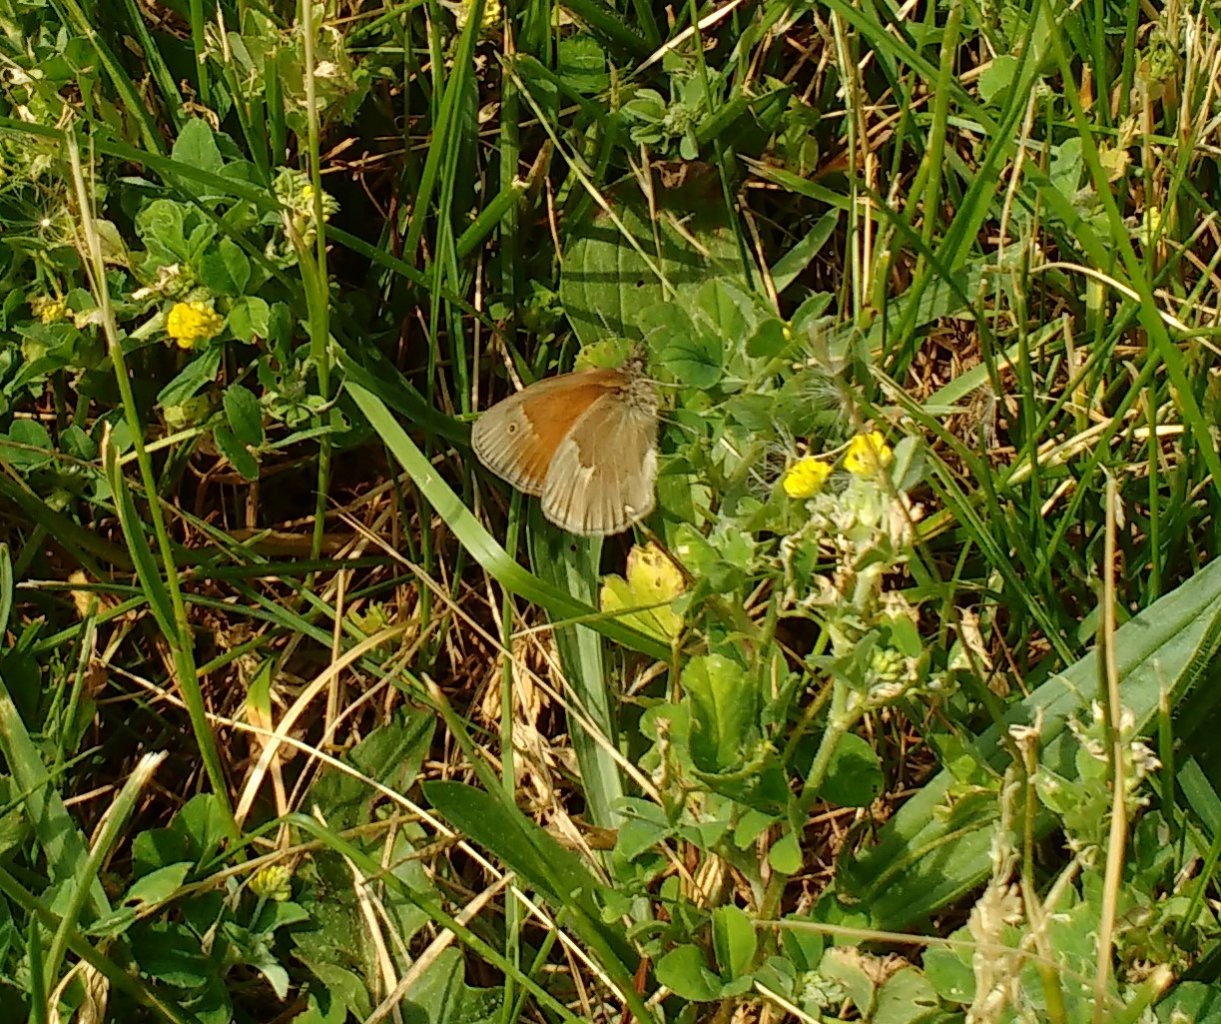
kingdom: Animalia
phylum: Arthropoda
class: Insecta
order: Lepidoptera
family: Nymphalidae
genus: Coenonympha
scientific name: Coenonympha tullia
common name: Large Heath
